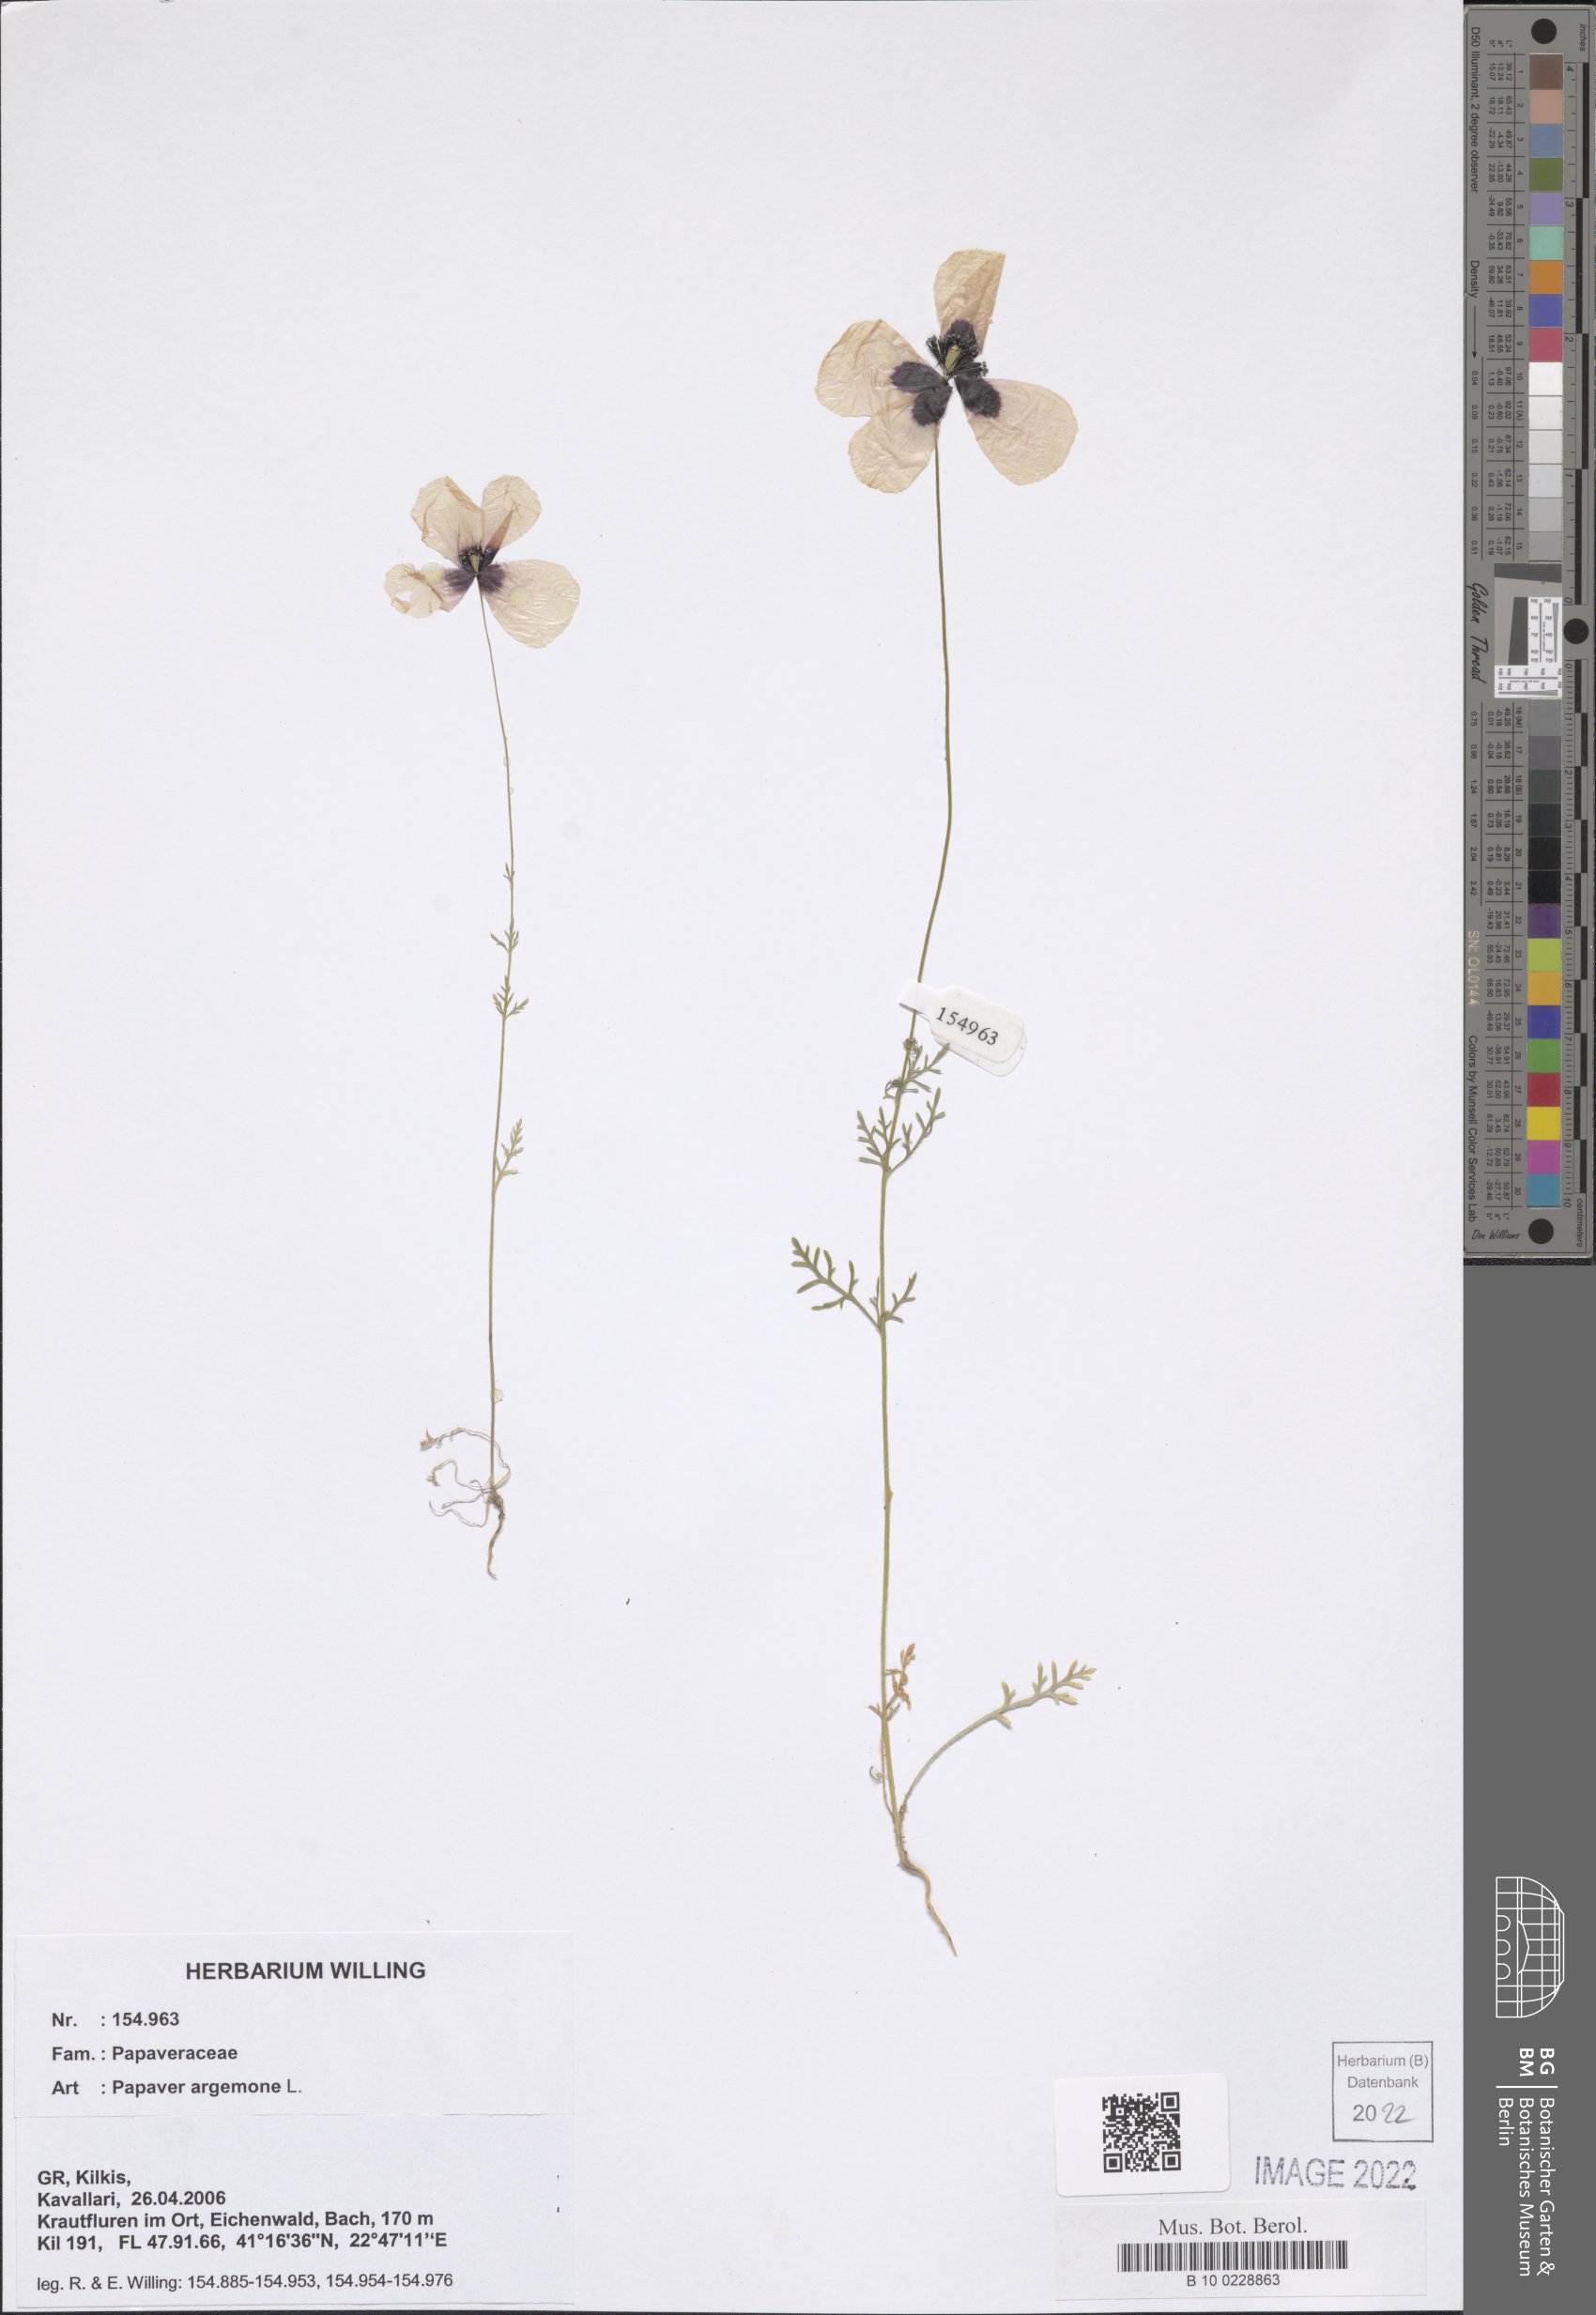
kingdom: Plantae
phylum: Tracheophyta
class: Magnoliopsida
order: Ranunculales
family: Papaveraceae
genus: Roemeria
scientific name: Roemeria argemone
